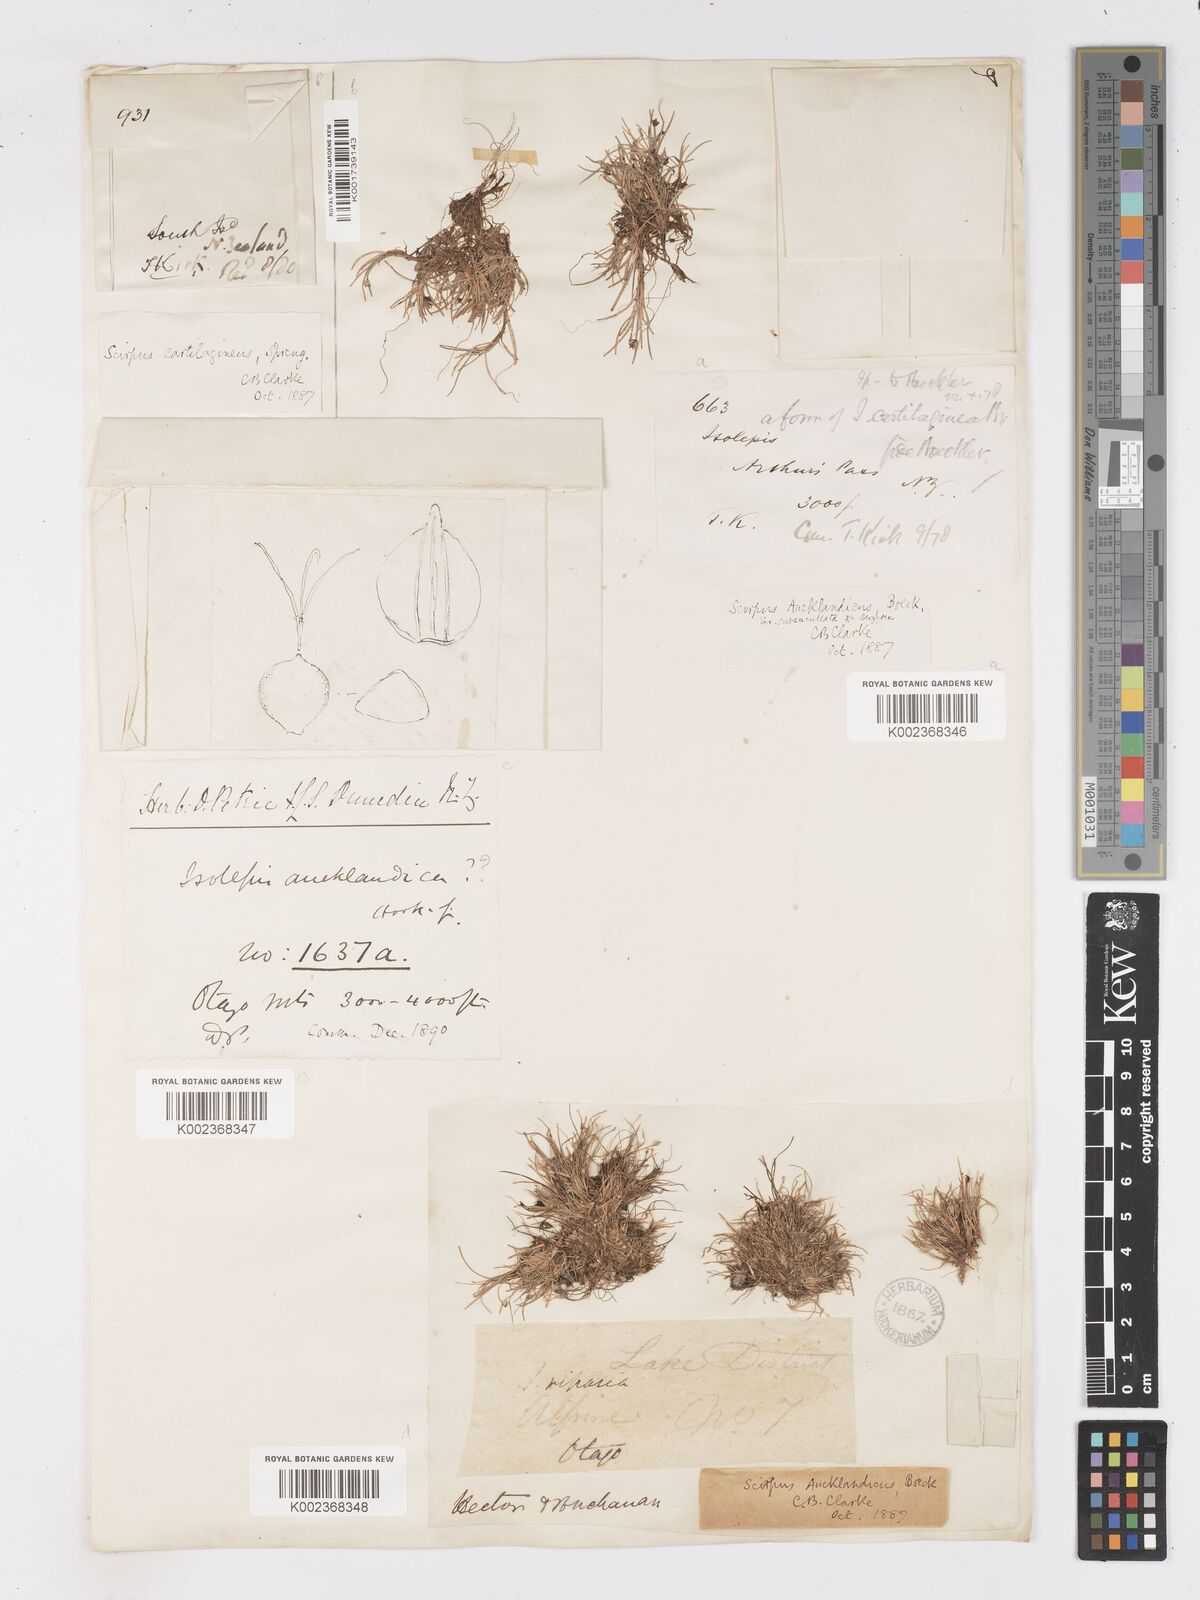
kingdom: Plantae
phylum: Tracheophyta
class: Liliopsida
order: Poales
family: Cyperaceae
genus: Isolepis
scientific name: Isolepis aucklandica
